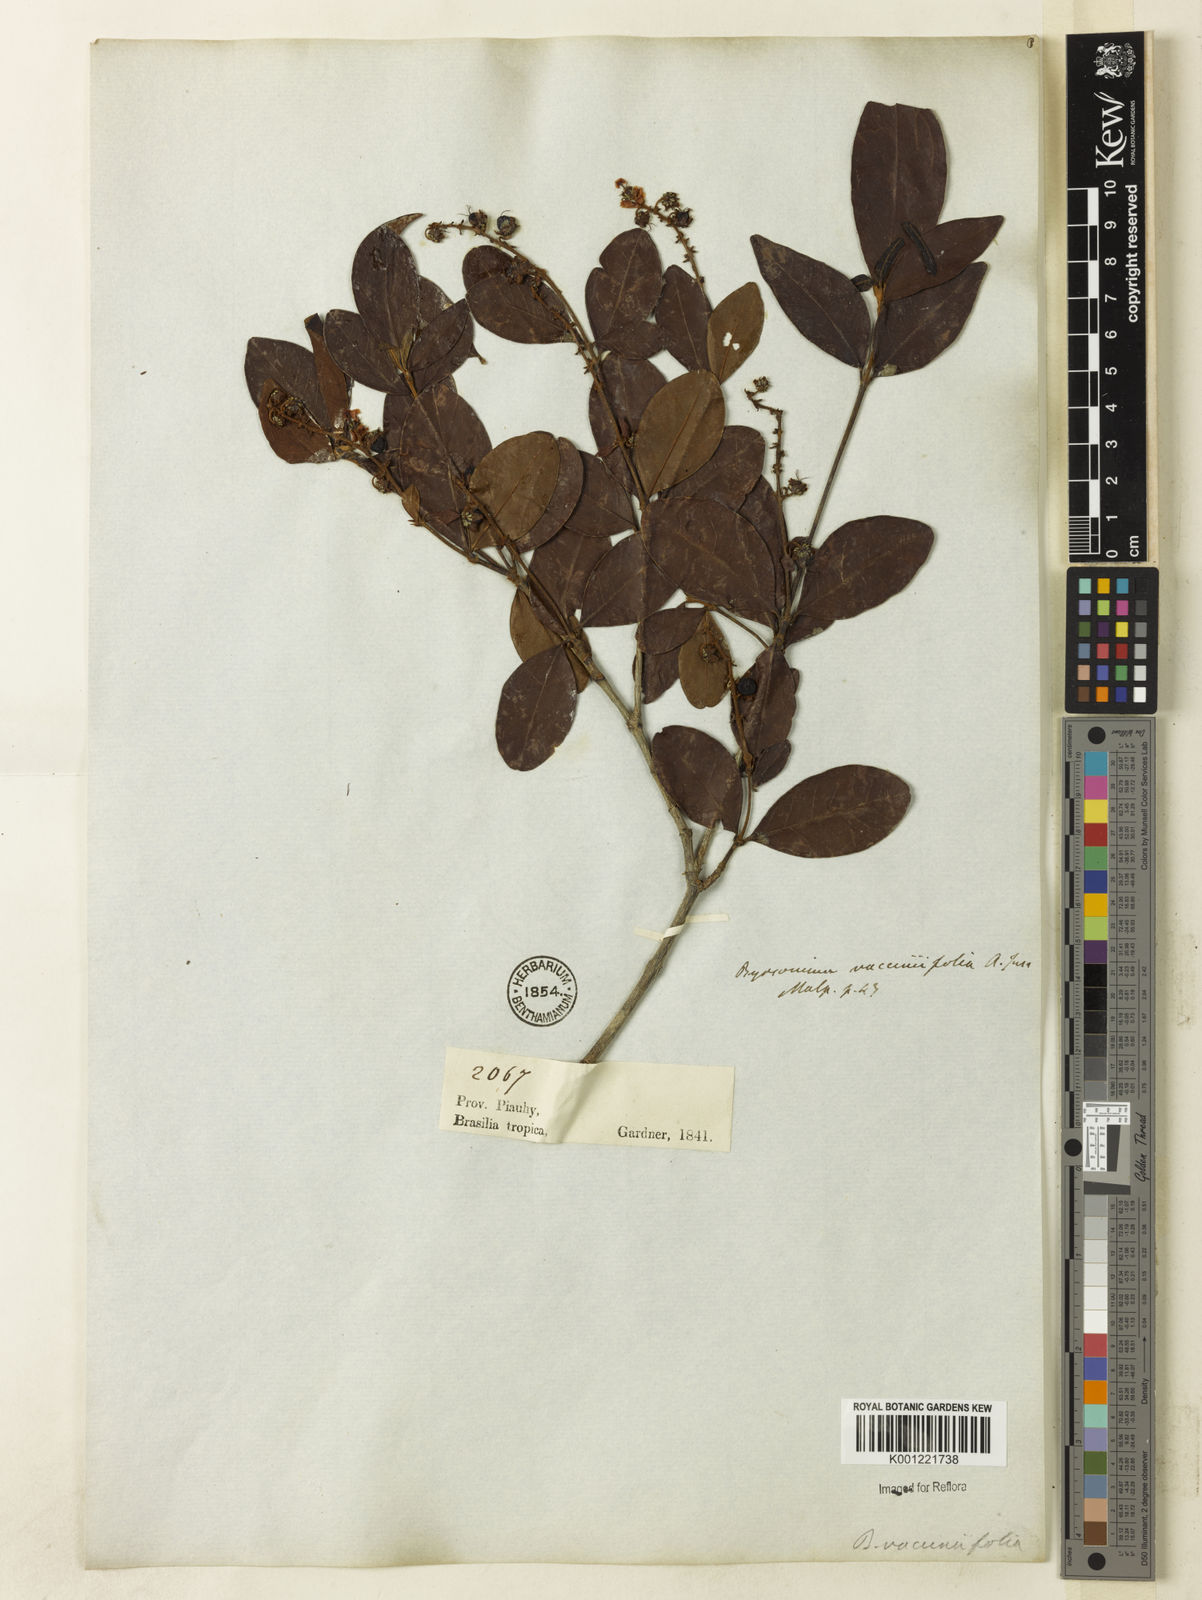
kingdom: Plantae
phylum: Tracheophyta
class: Magnoliopsida
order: Malpighiales
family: Malpighiaceae
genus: Byrsonima
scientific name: Byrsonima vacciniifolia
